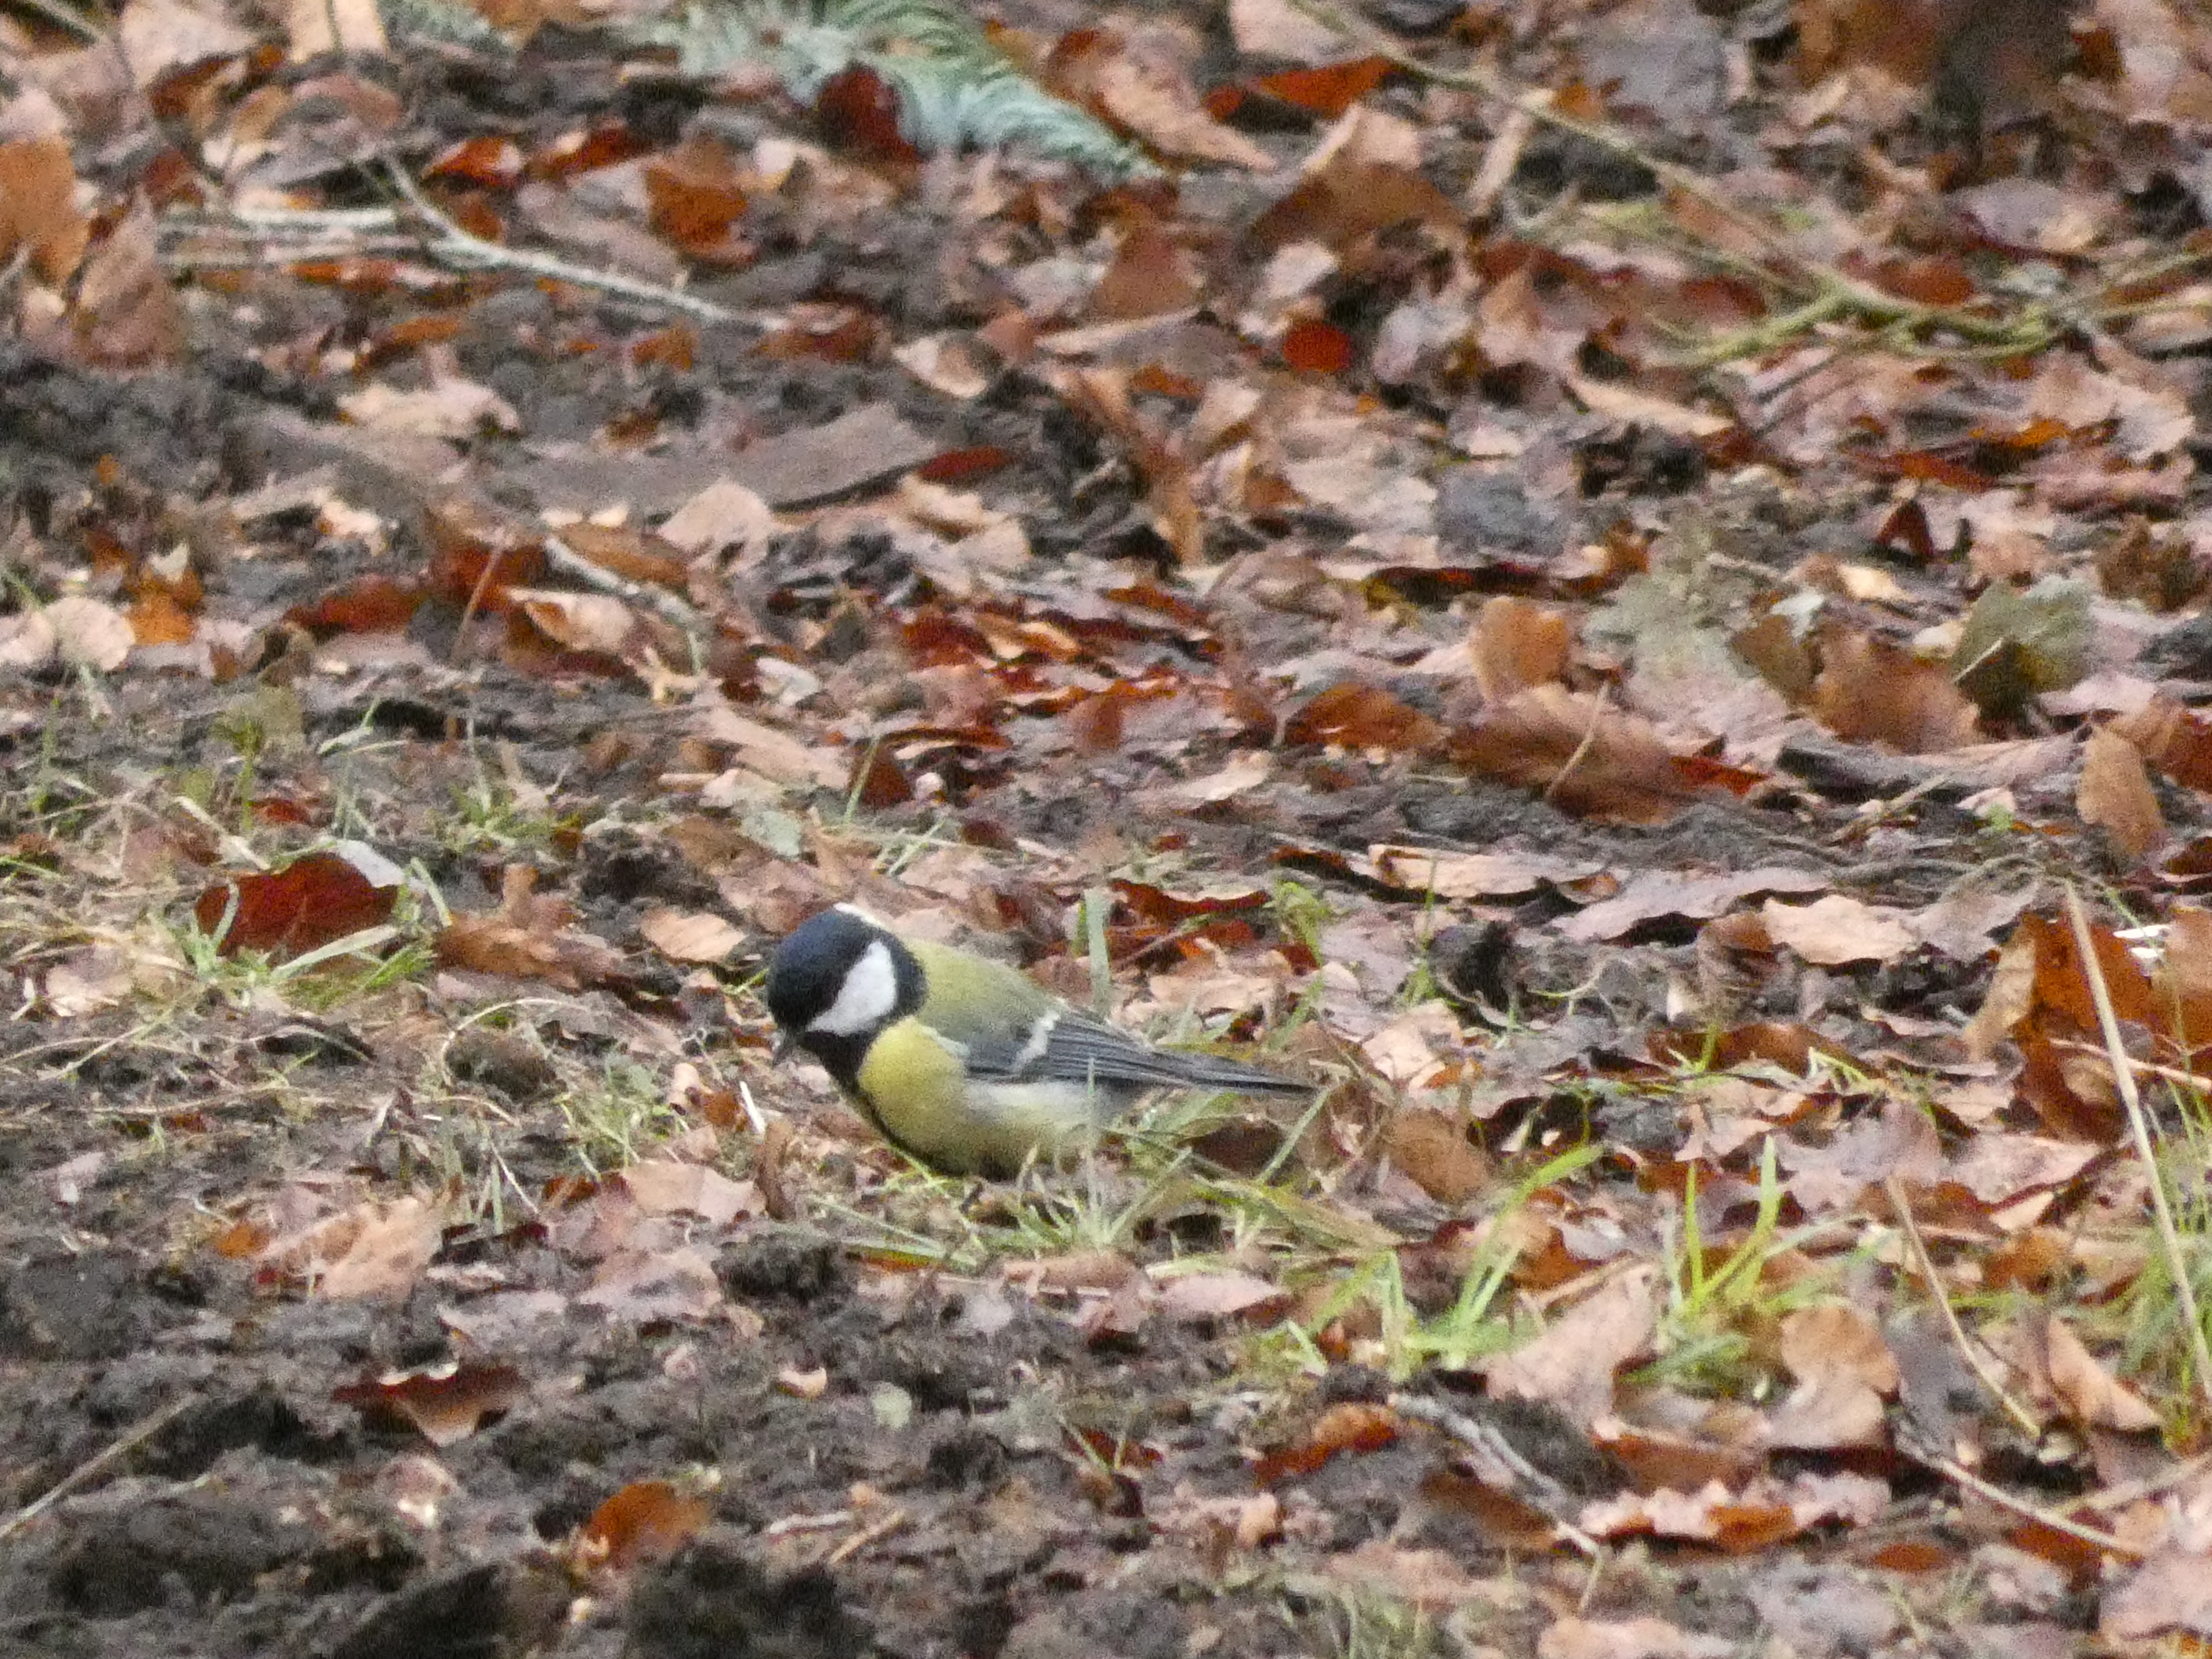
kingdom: Animalia
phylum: Chordata
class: Aves
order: Passeriformes
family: Paridae
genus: Parus
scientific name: Parus major
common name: Musvit
